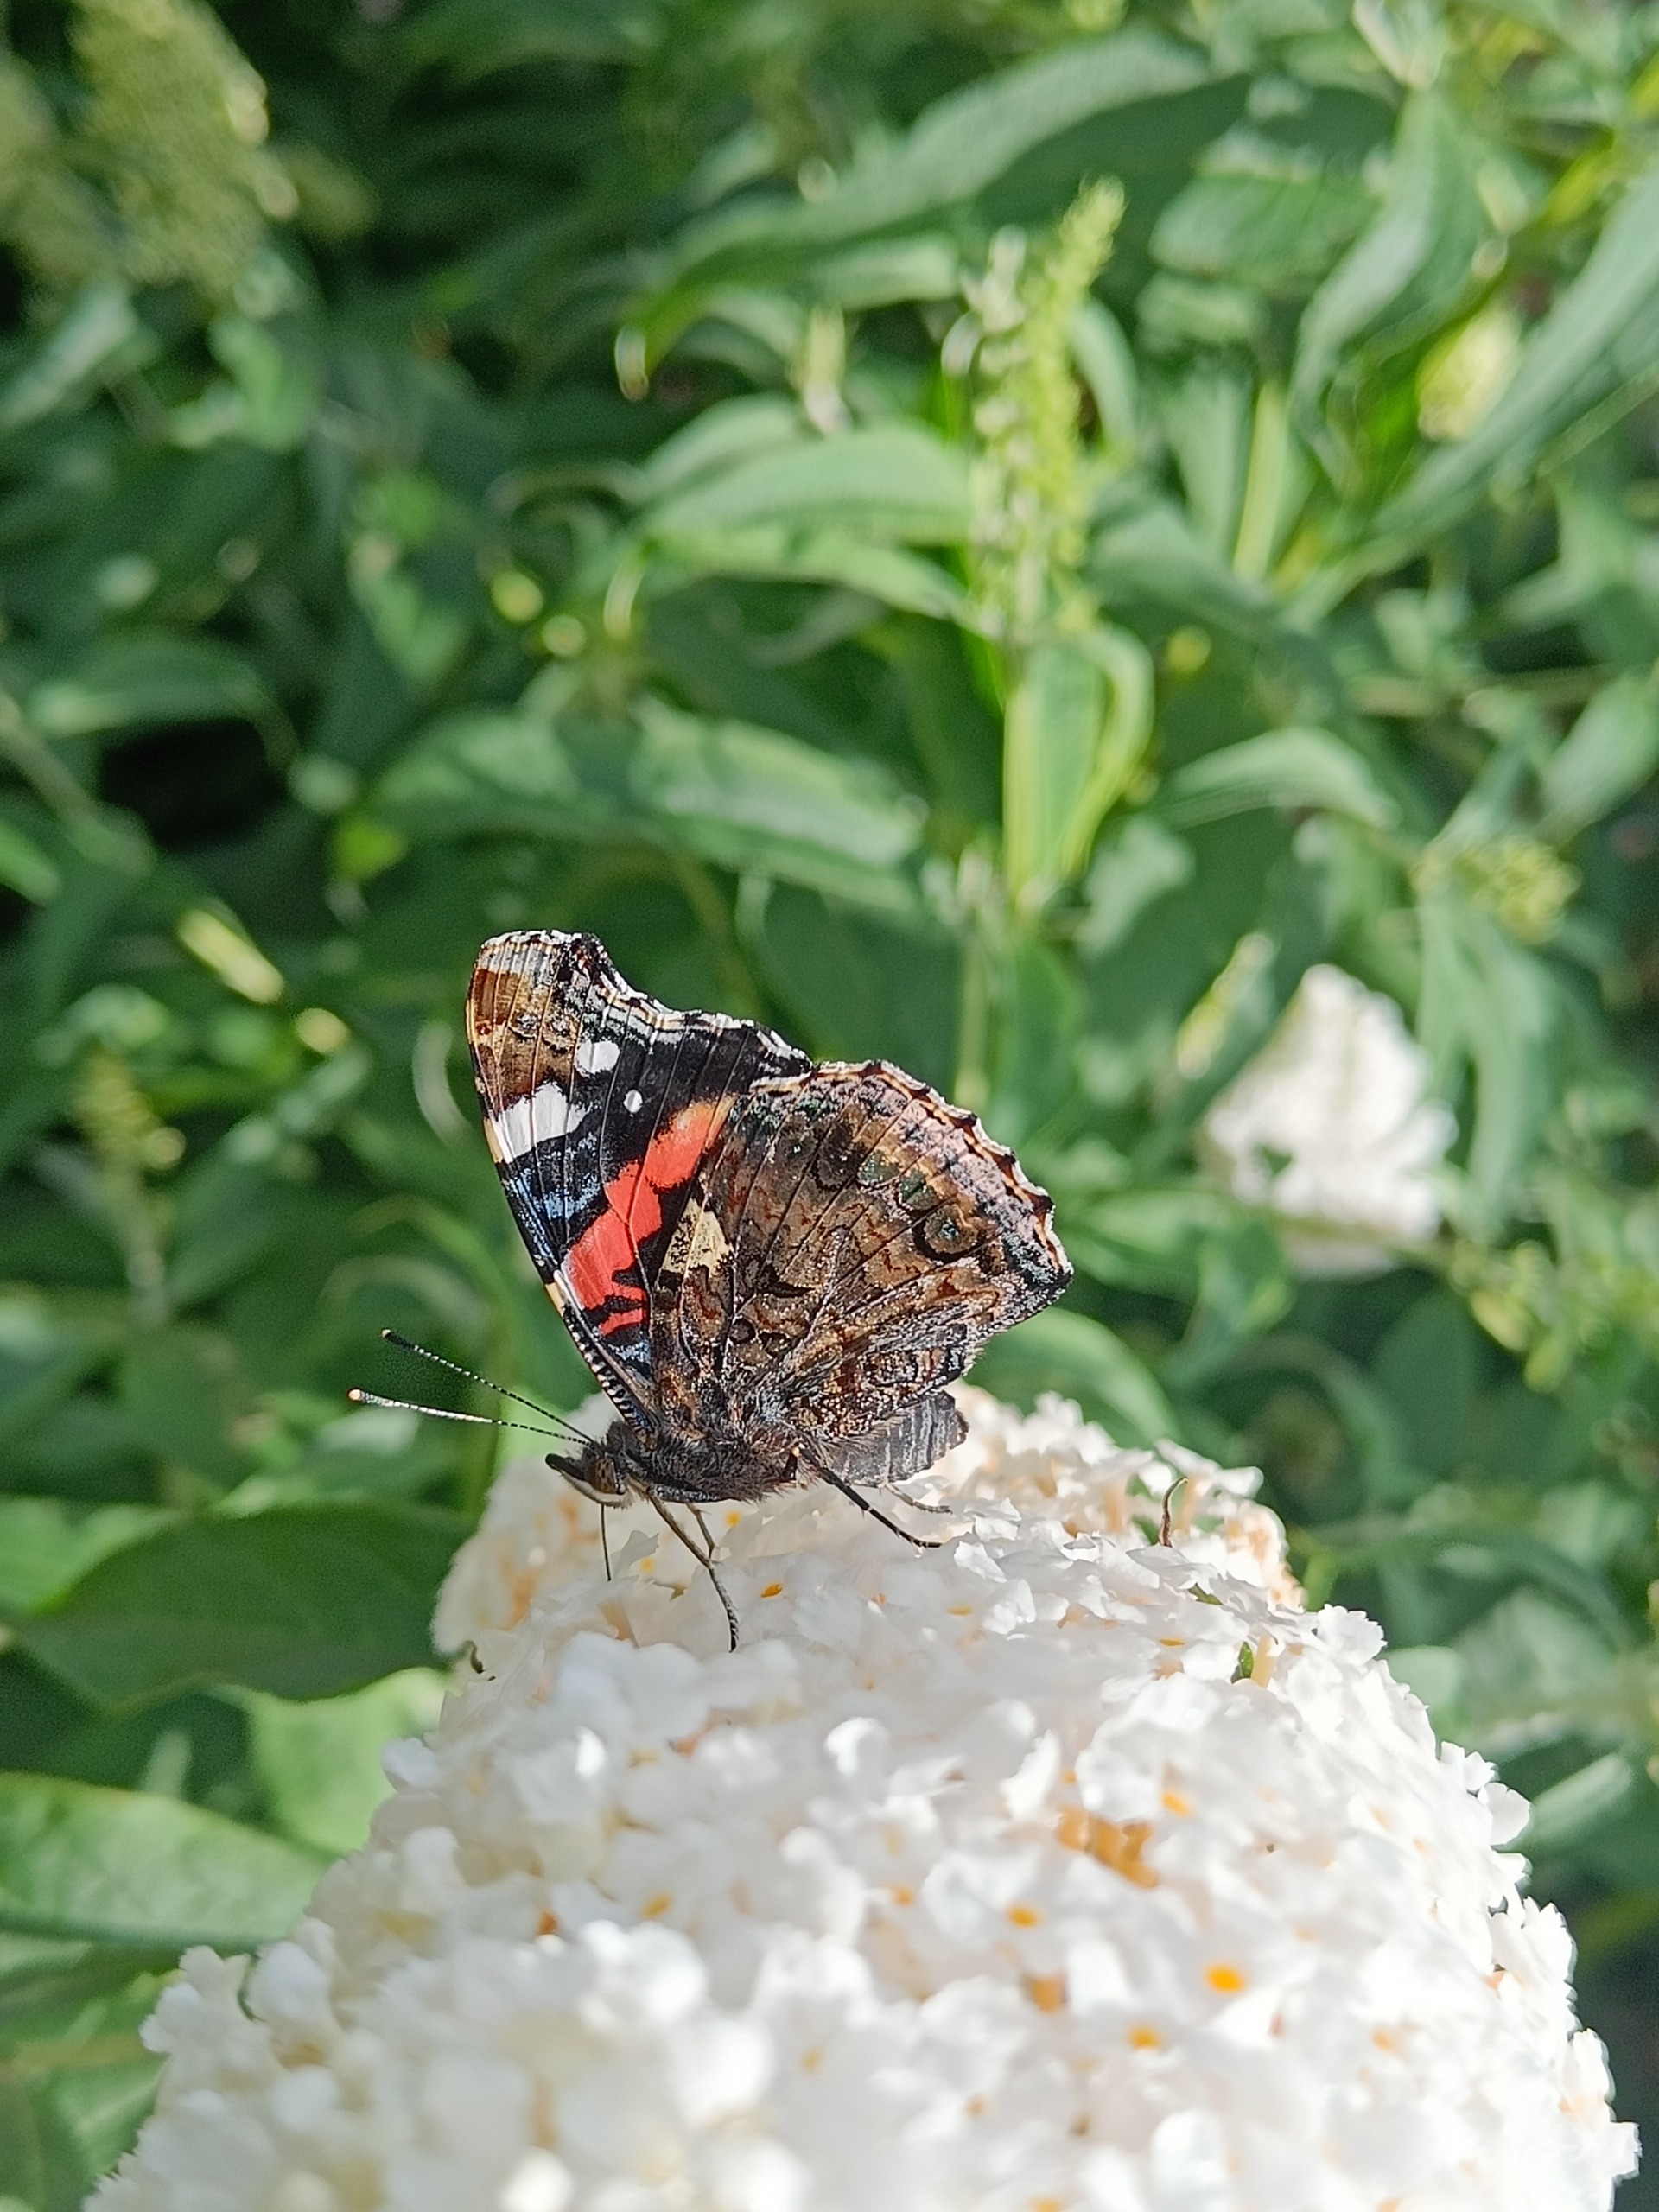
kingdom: Animalia
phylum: Arthropoda
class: Insecta
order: Lepidoptera
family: Nymphalidae
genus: Vanessa
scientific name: Vanessa atalanta
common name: Admiral
